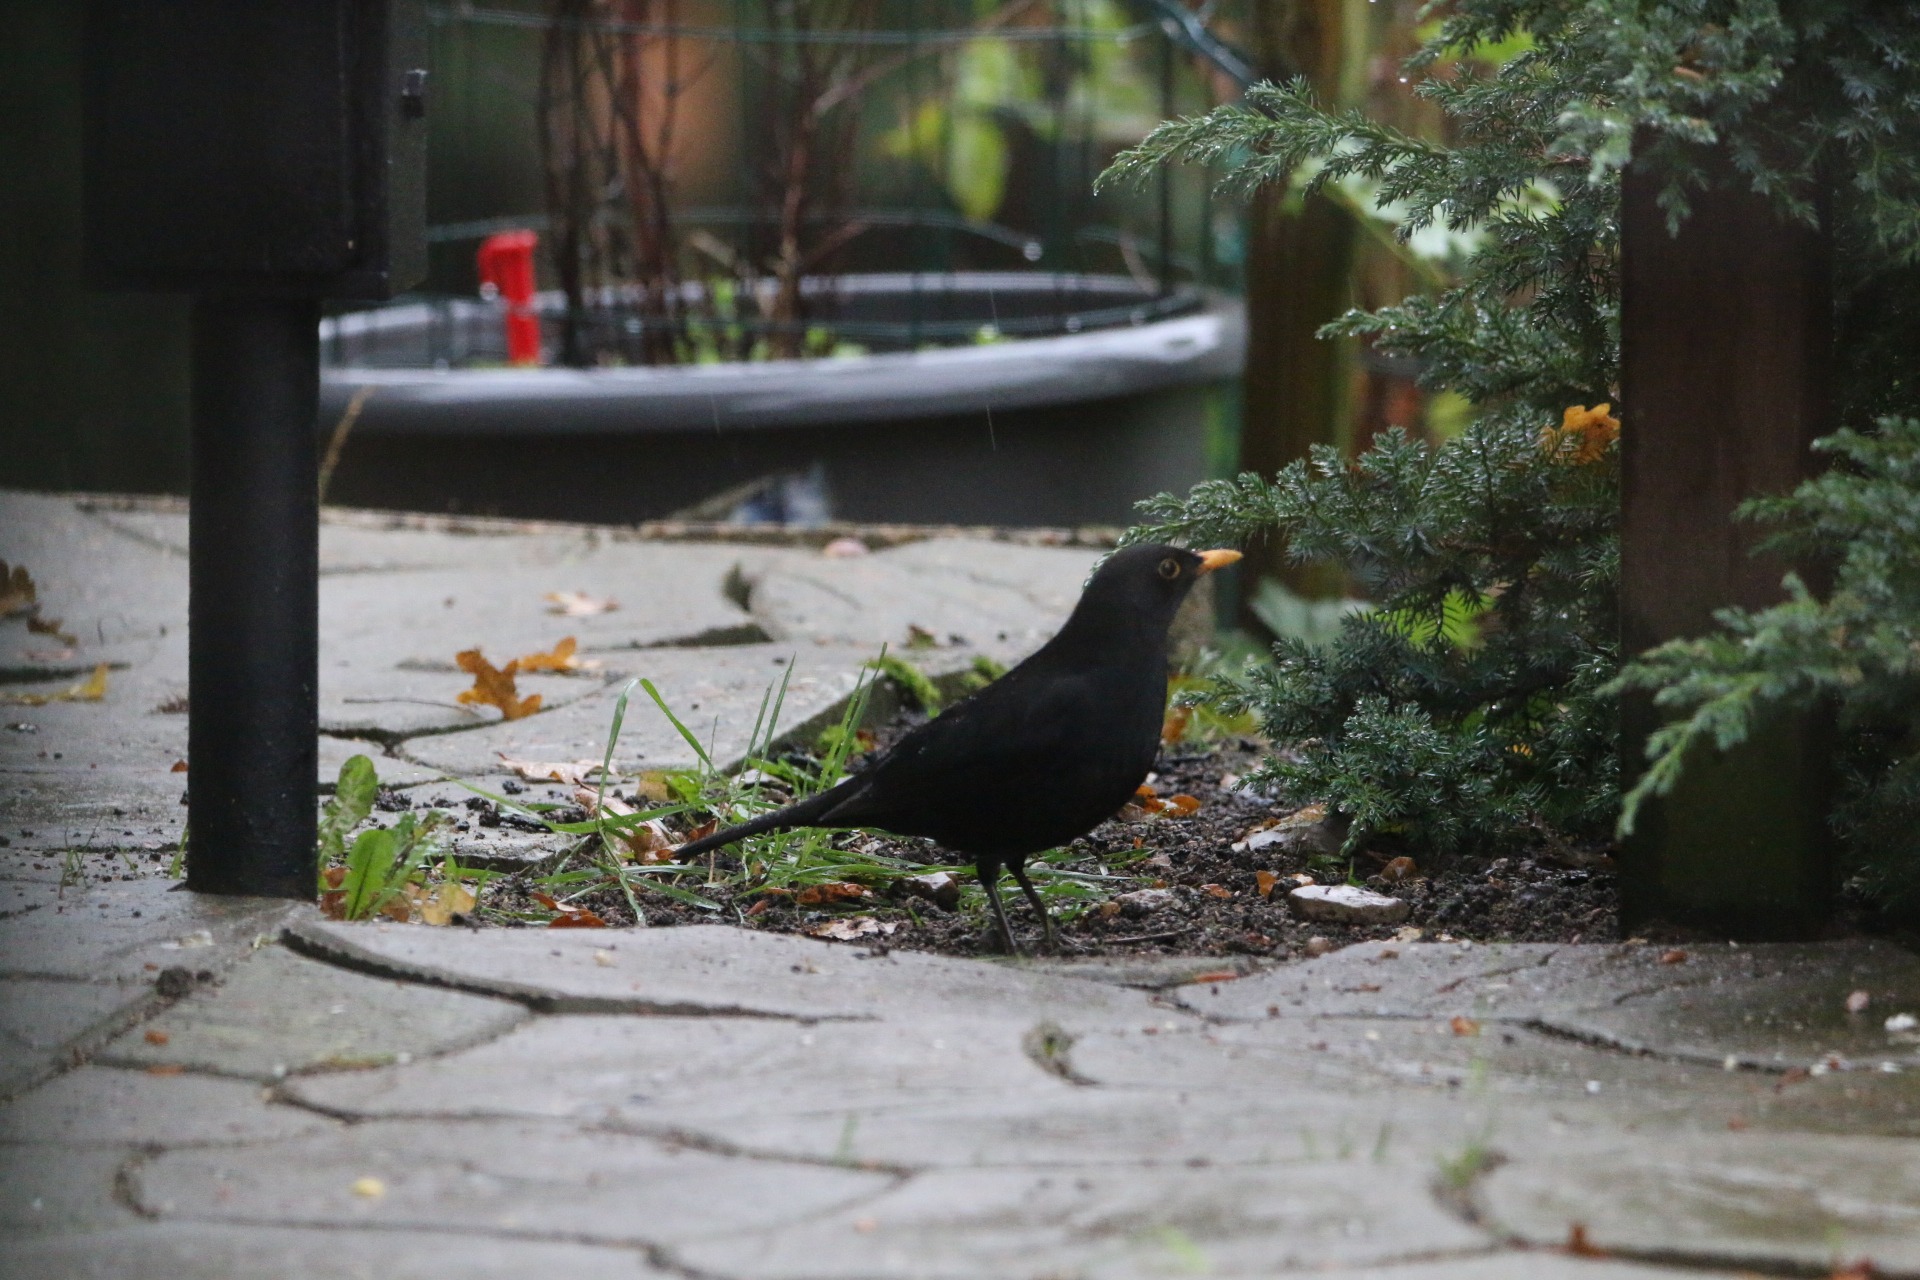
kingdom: Animalia
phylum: Chordata
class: Aves
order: Passeriformes
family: Turdidae
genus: Turdus
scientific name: Turdus merula
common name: Solsort
